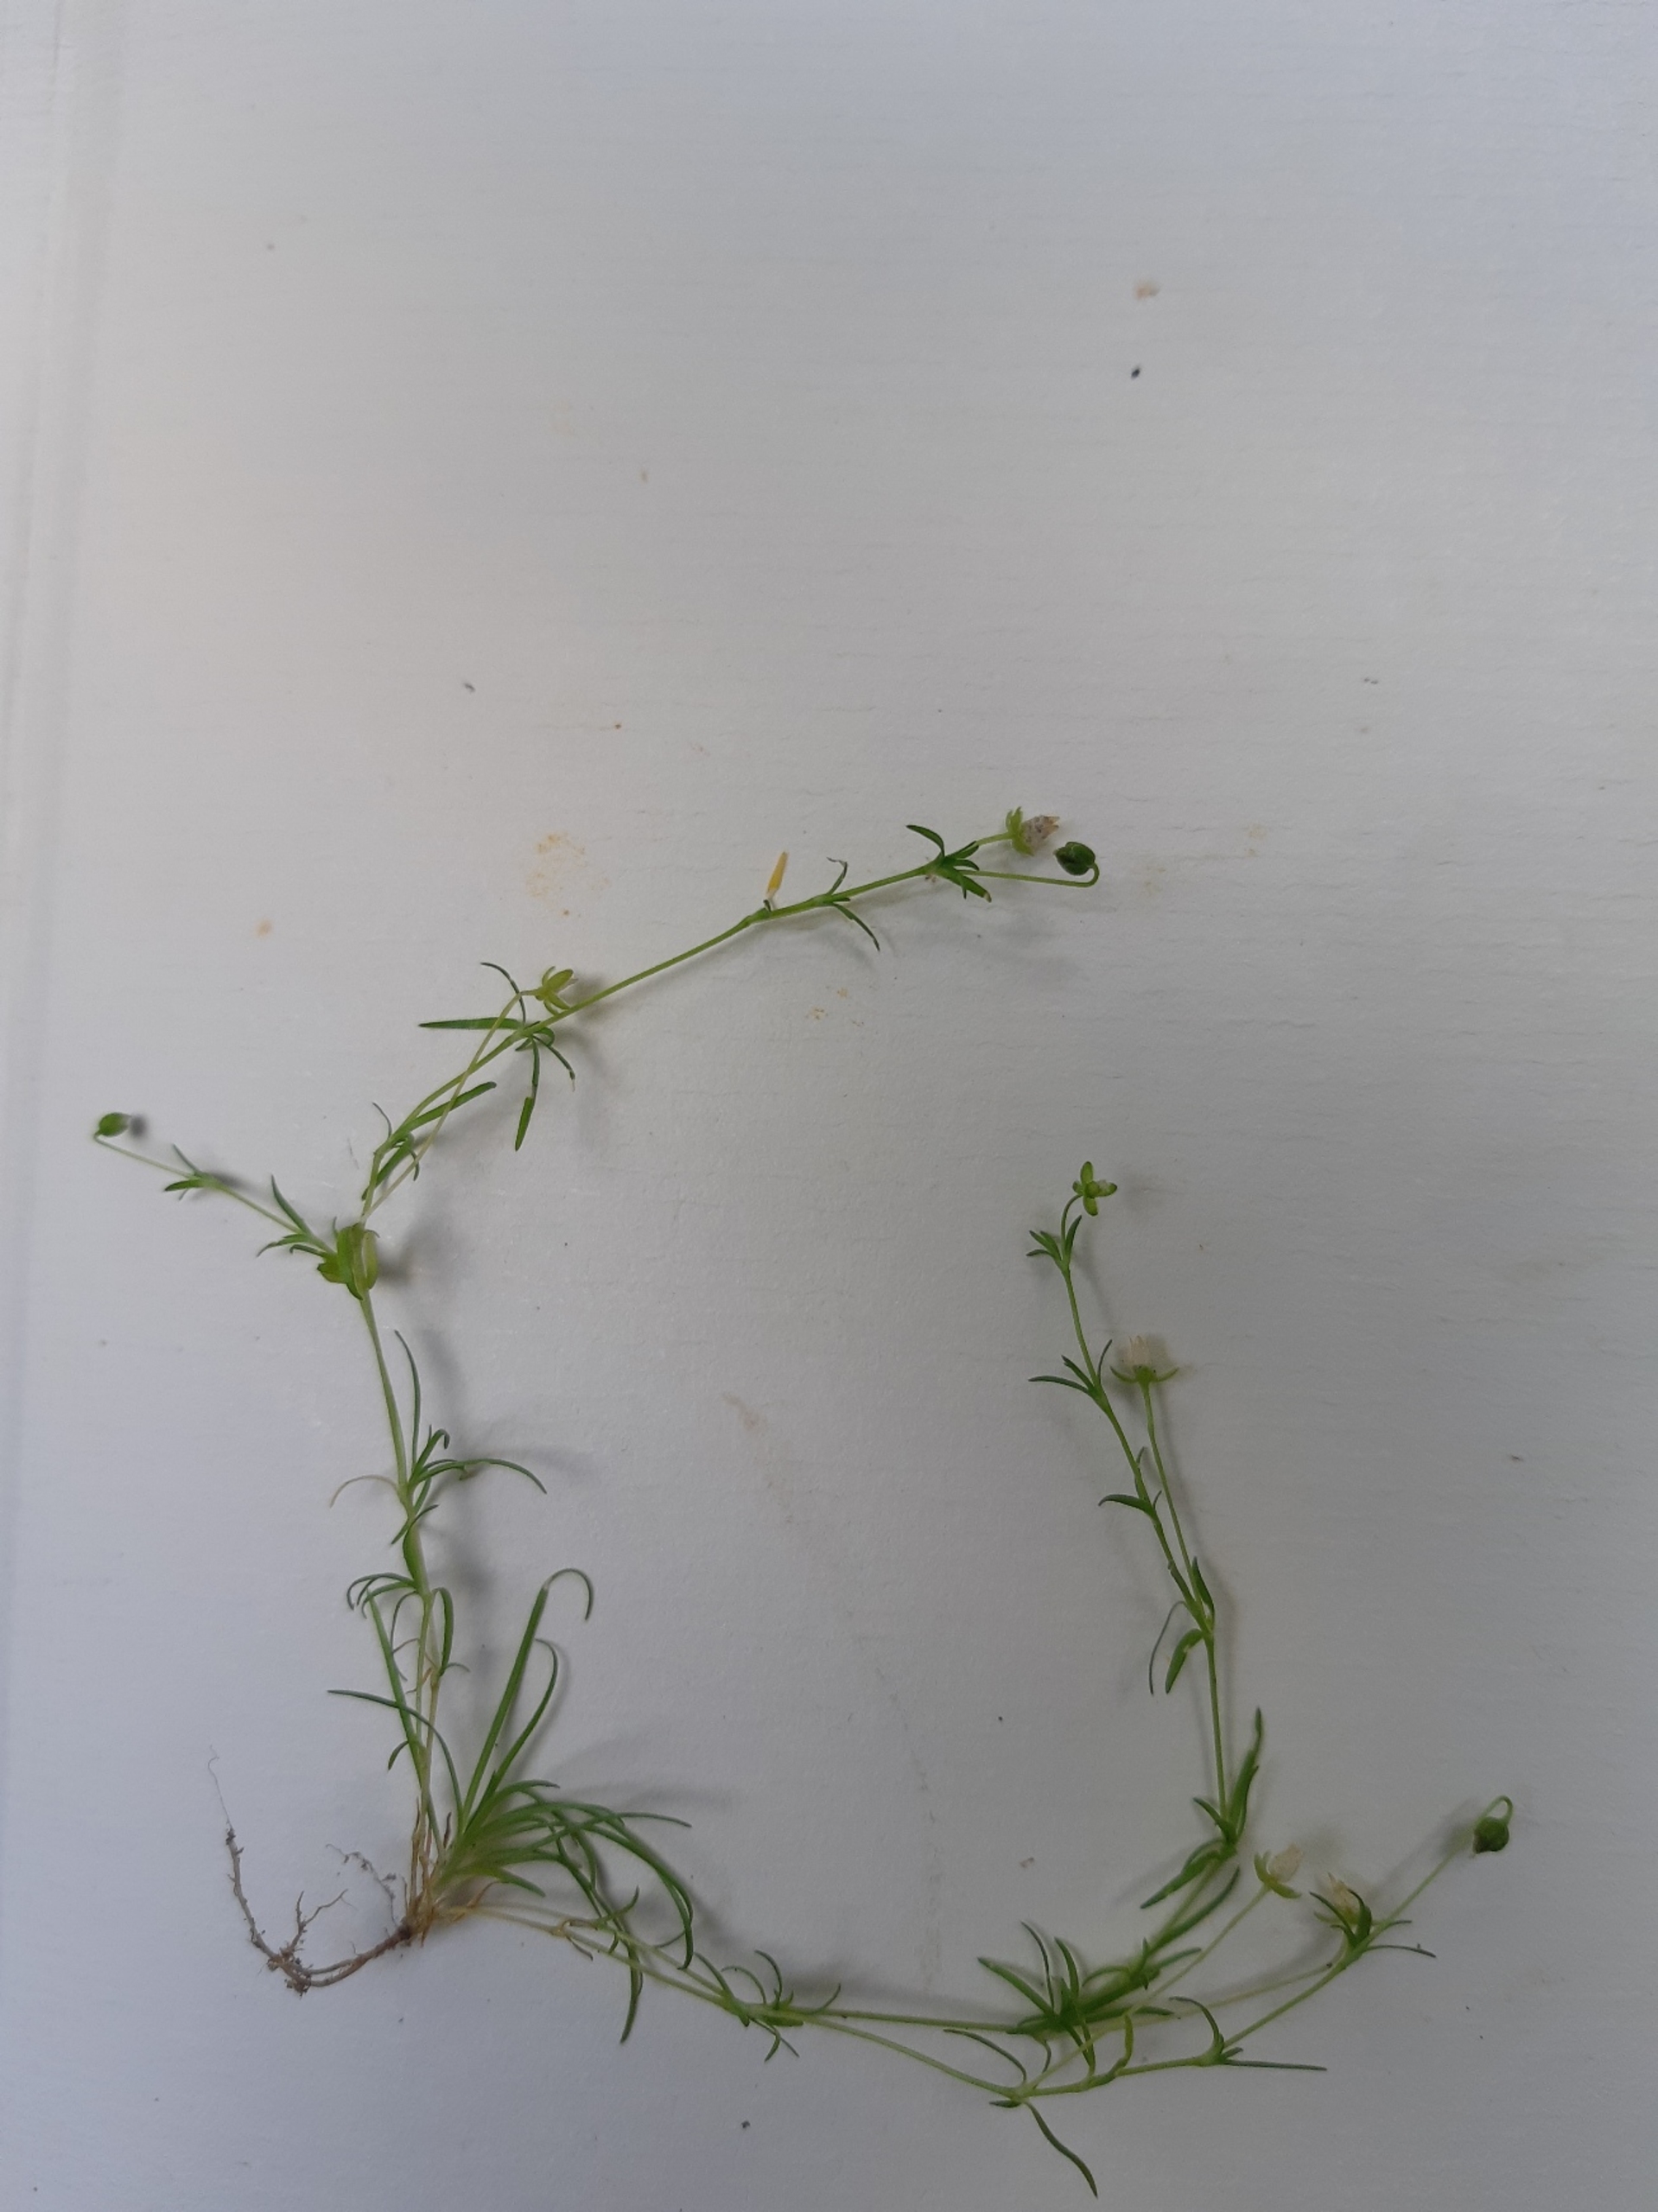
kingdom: Plantae
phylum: Tracheophyta
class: Magnoliopsida
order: Caryophyllales
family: Caryophyllaceae
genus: Sagina
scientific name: Sagina procumbens
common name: Almindelig firling
